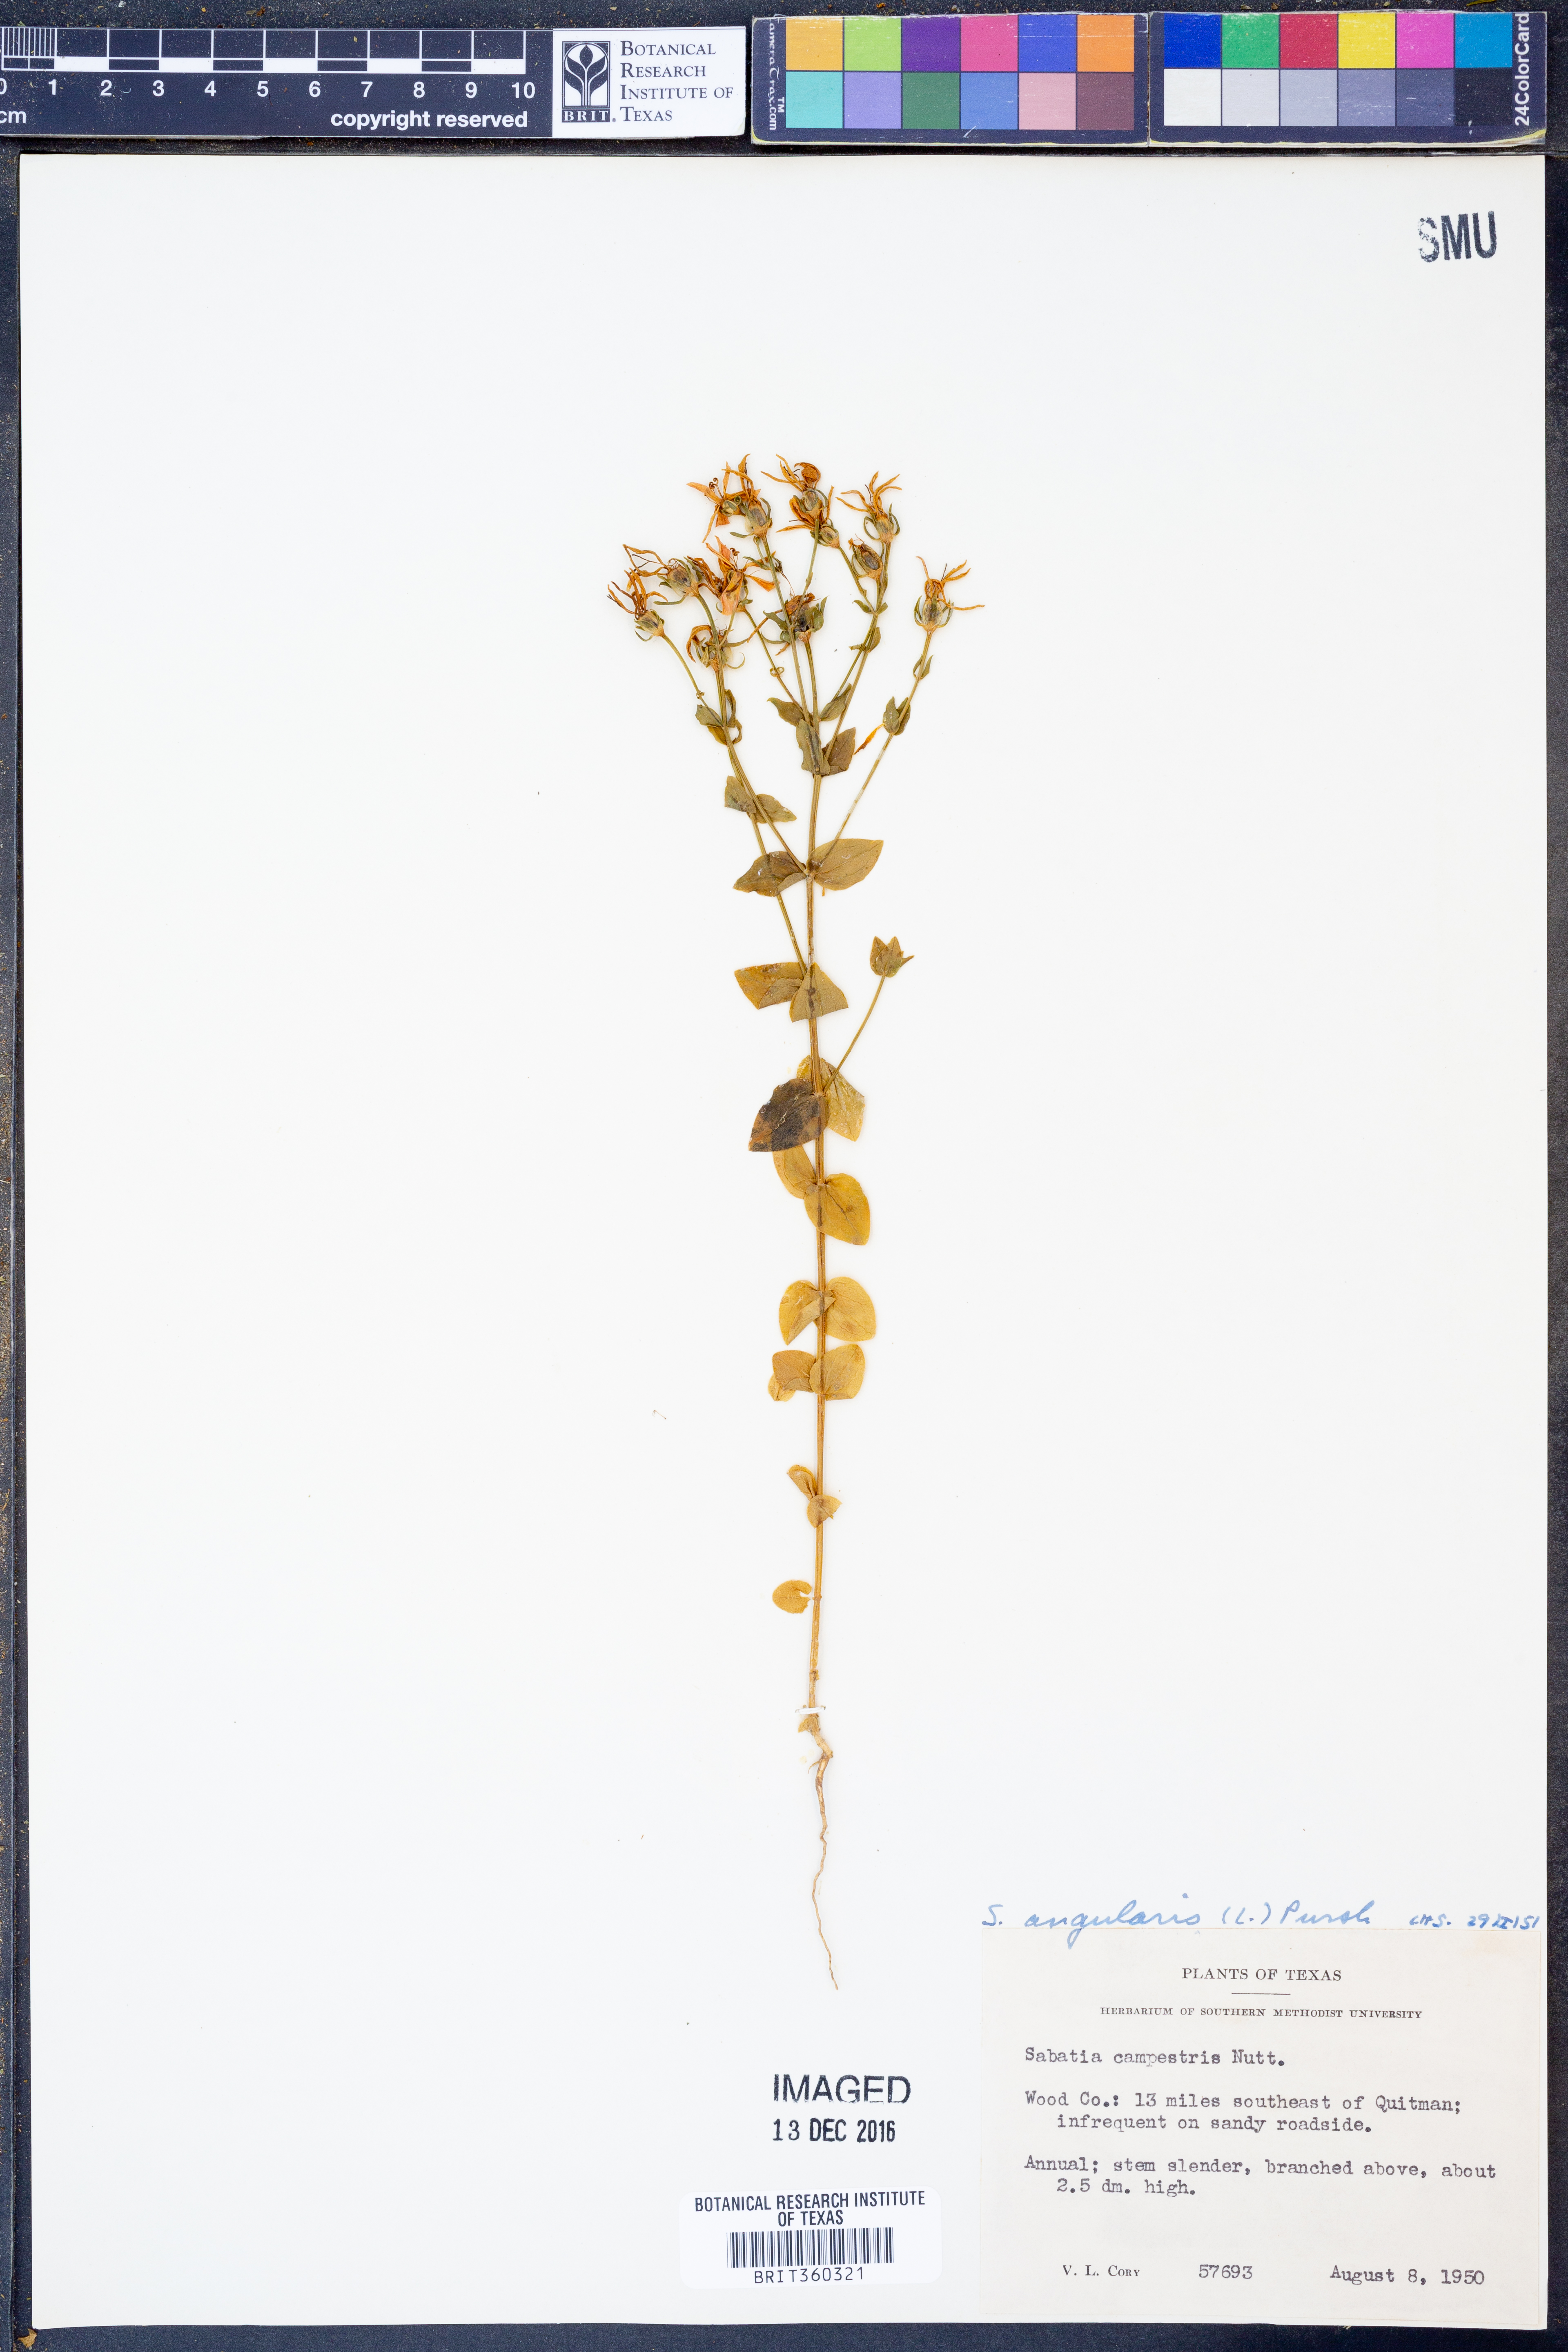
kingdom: Plantae
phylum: Tracheophyta
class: Magnoliopsida
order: Gentianales
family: Gentianaceae
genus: Sabatia
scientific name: Sabatia angularis
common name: Rose-pink
